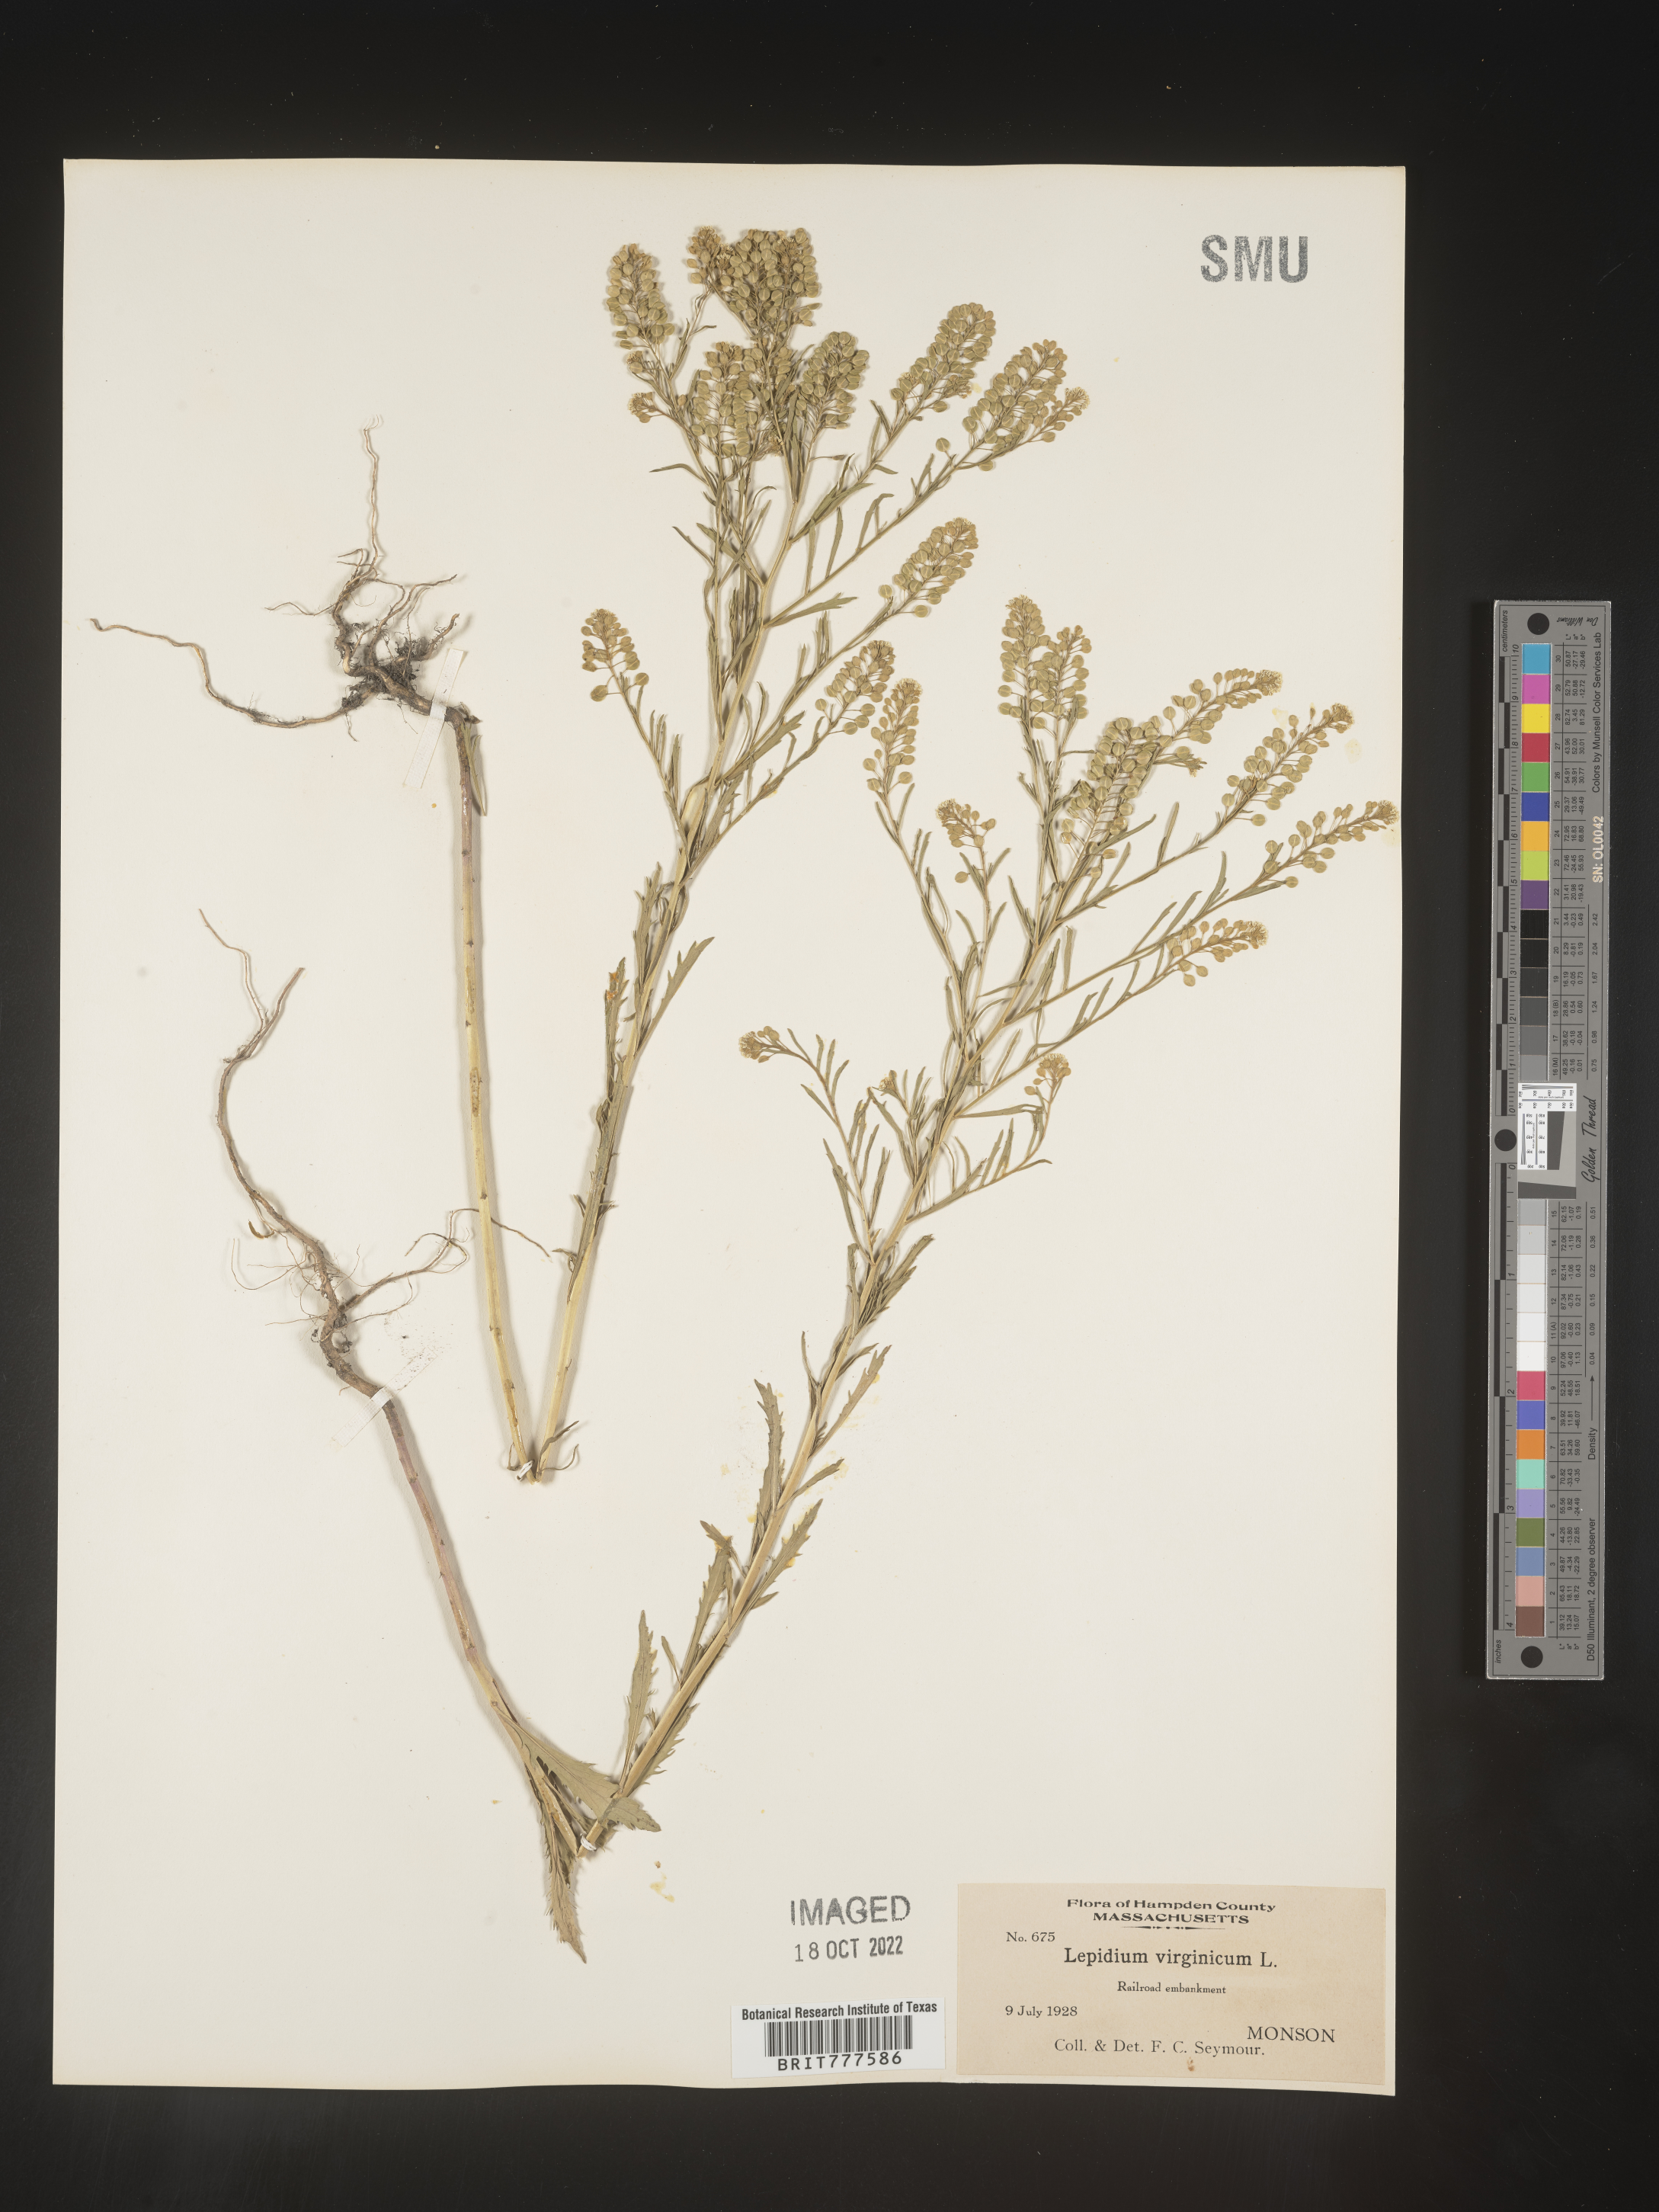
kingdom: Plantae
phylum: Tracheophyta
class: Magnoliopsida
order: Brassicales
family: Brassicaceae
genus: Lepidium
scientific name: Lepidium virginicum
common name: Least pepperwort
